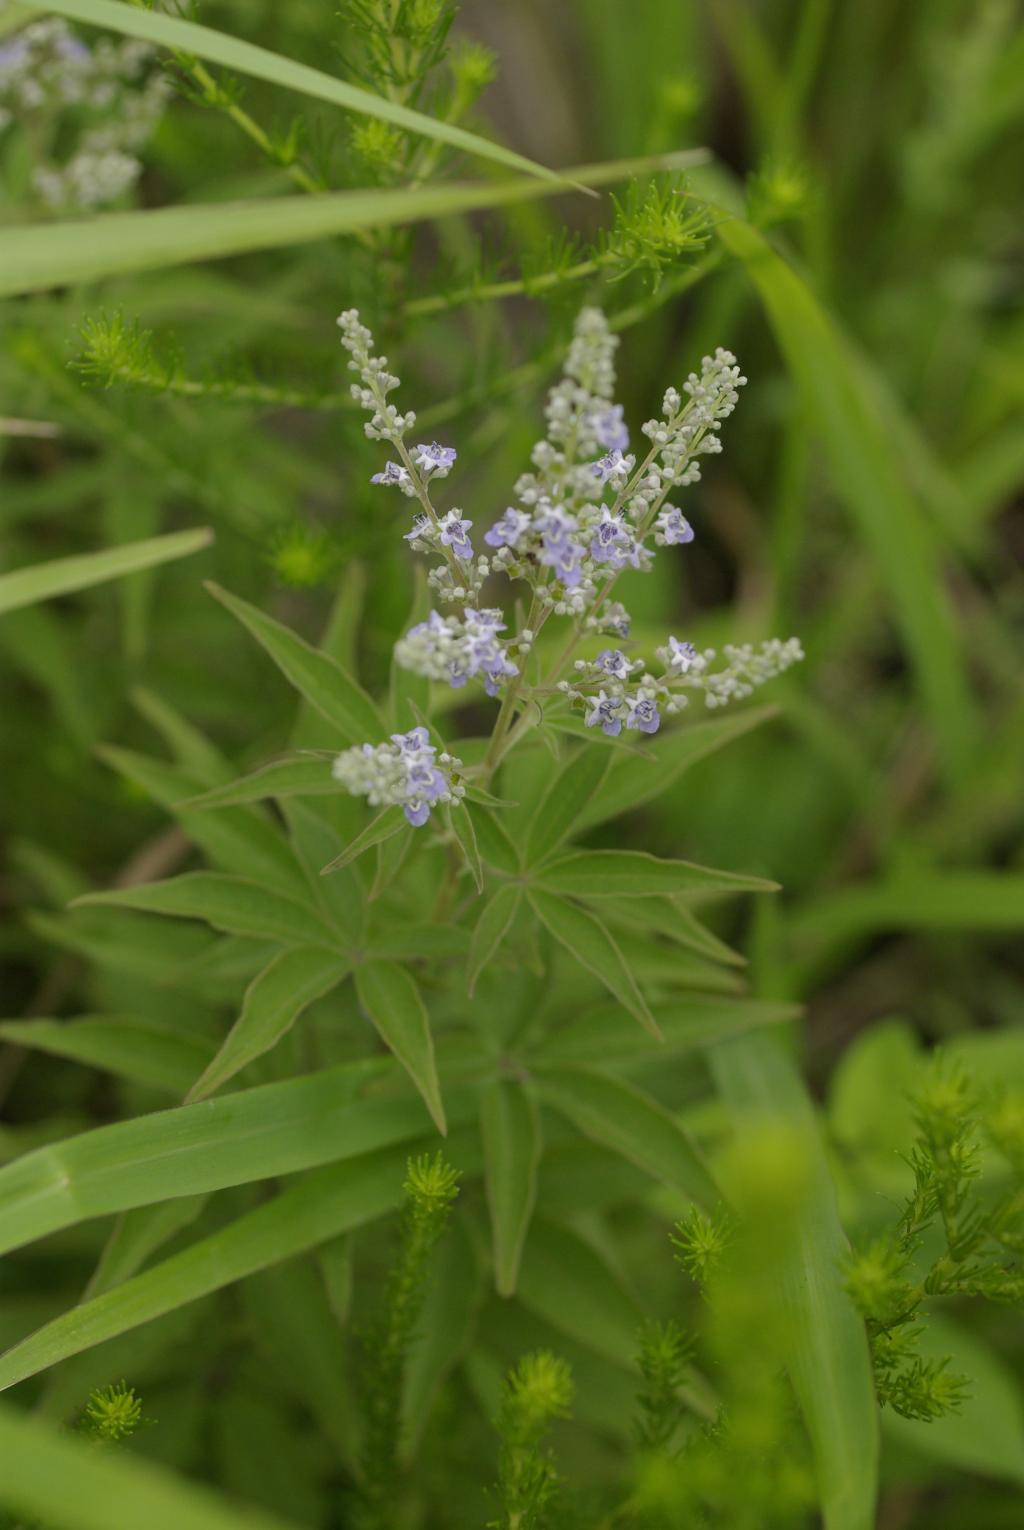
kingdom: Plantae
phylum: Tracheophyta
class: Magnoliopsida
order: Lamiales
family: Lamiaceae
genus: Vitex
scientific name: Vitex negundo
